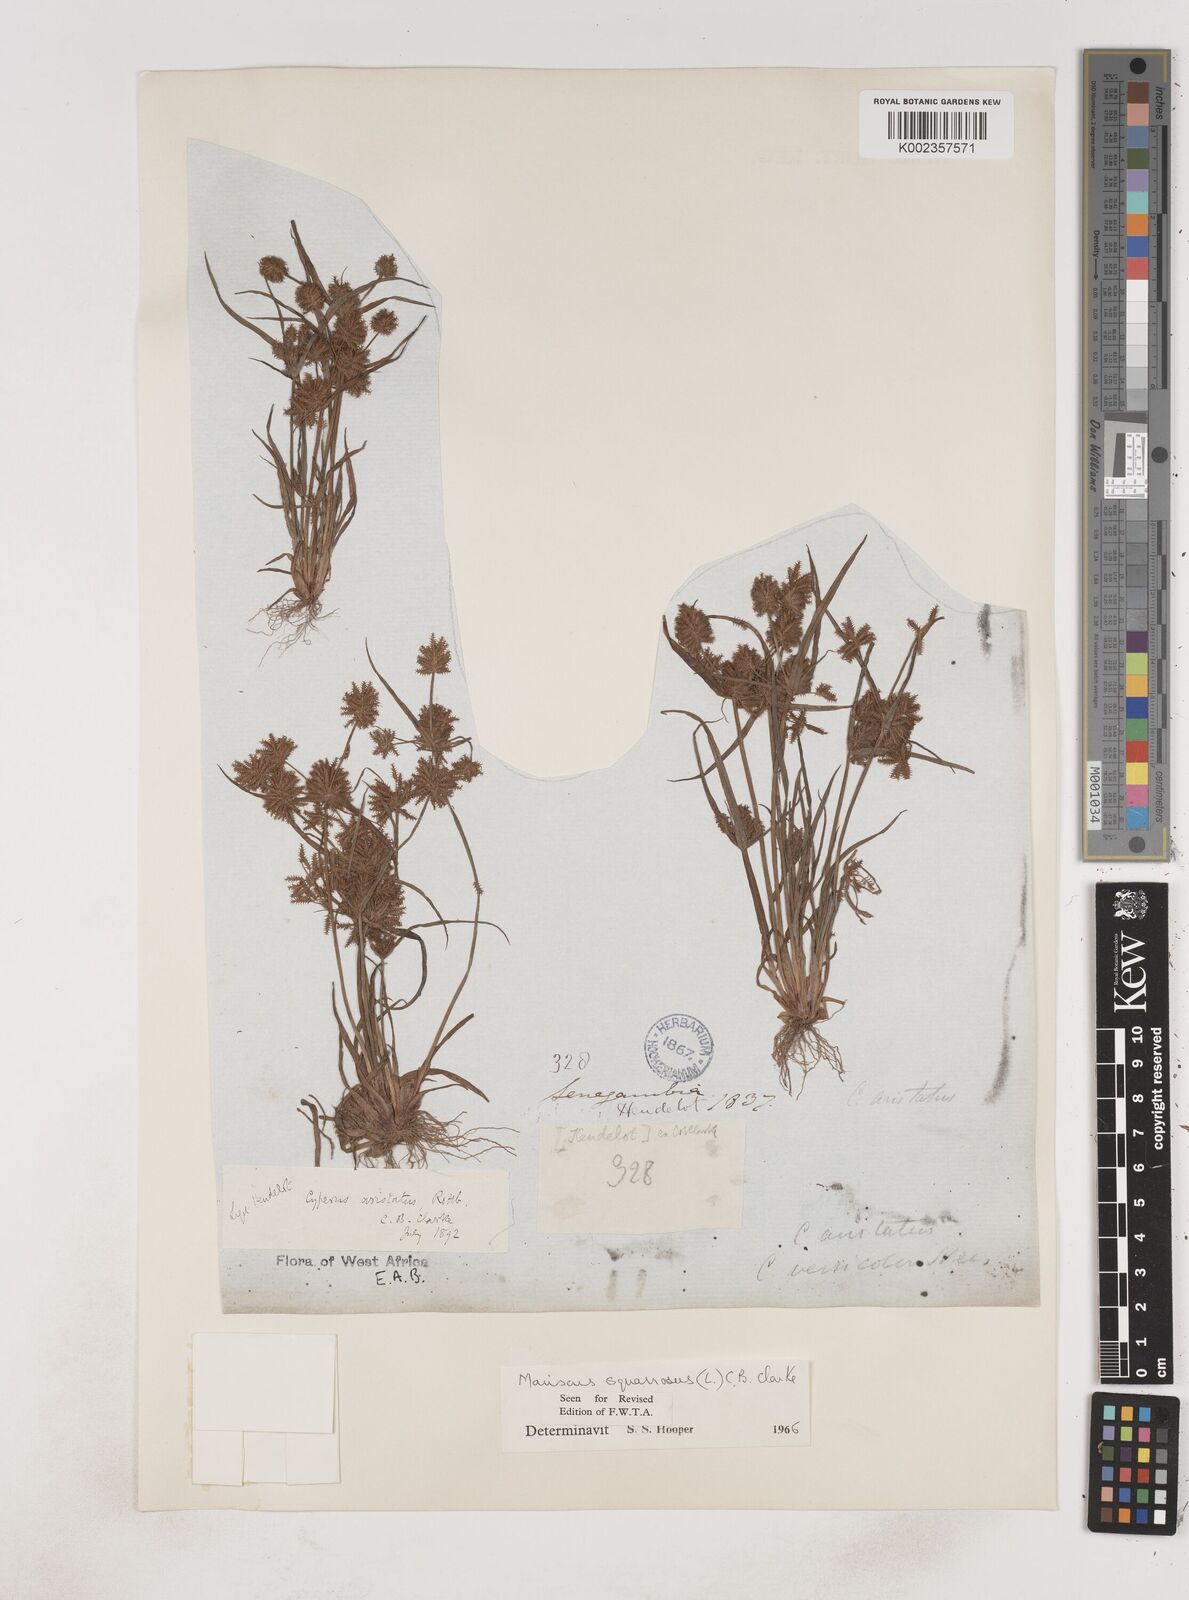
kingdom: Plantae
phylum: Tracheophyta
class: Liliopsida
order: Poales
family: Cyperaceae
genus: Cyperus
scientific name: Cyperus squarrosus
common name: Awned cyperus
